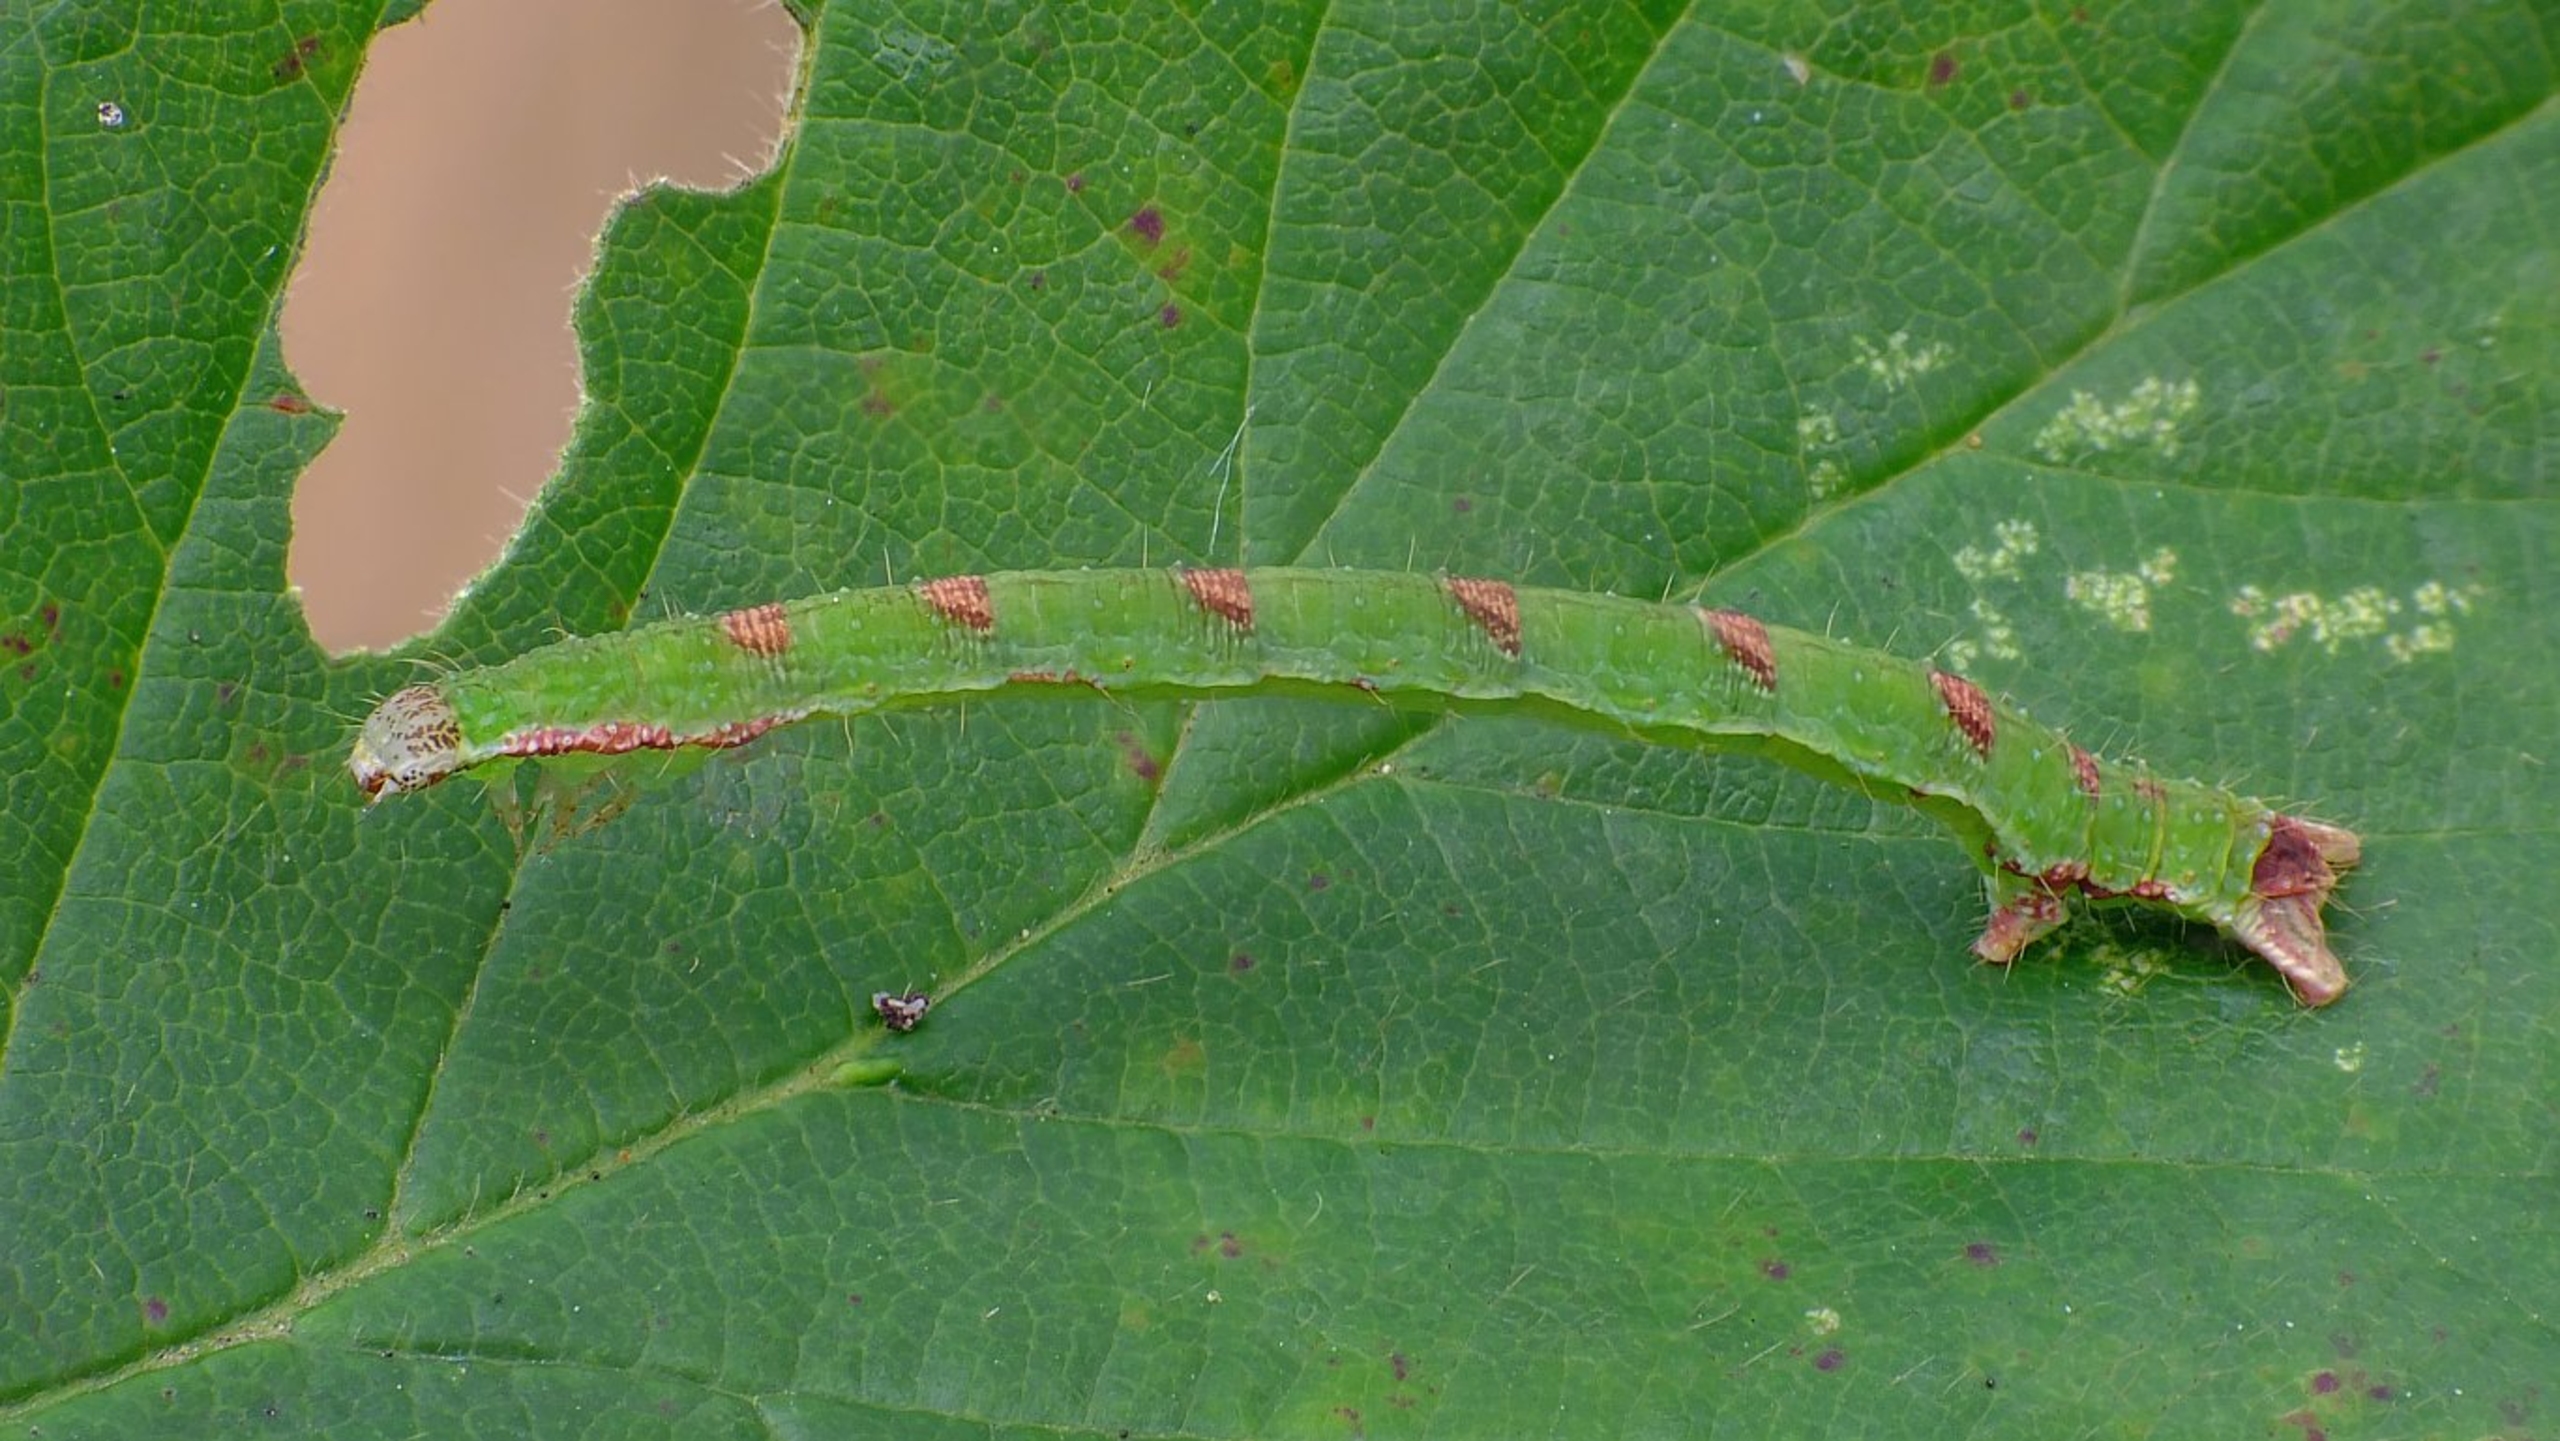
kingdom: Animalia
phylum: Arthropoda
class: Insecta
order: Lepidoptera
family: Geometridae
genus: Mesoleuca
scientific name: Mesoleuca albicillata
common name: Hindbær-bladmåler
